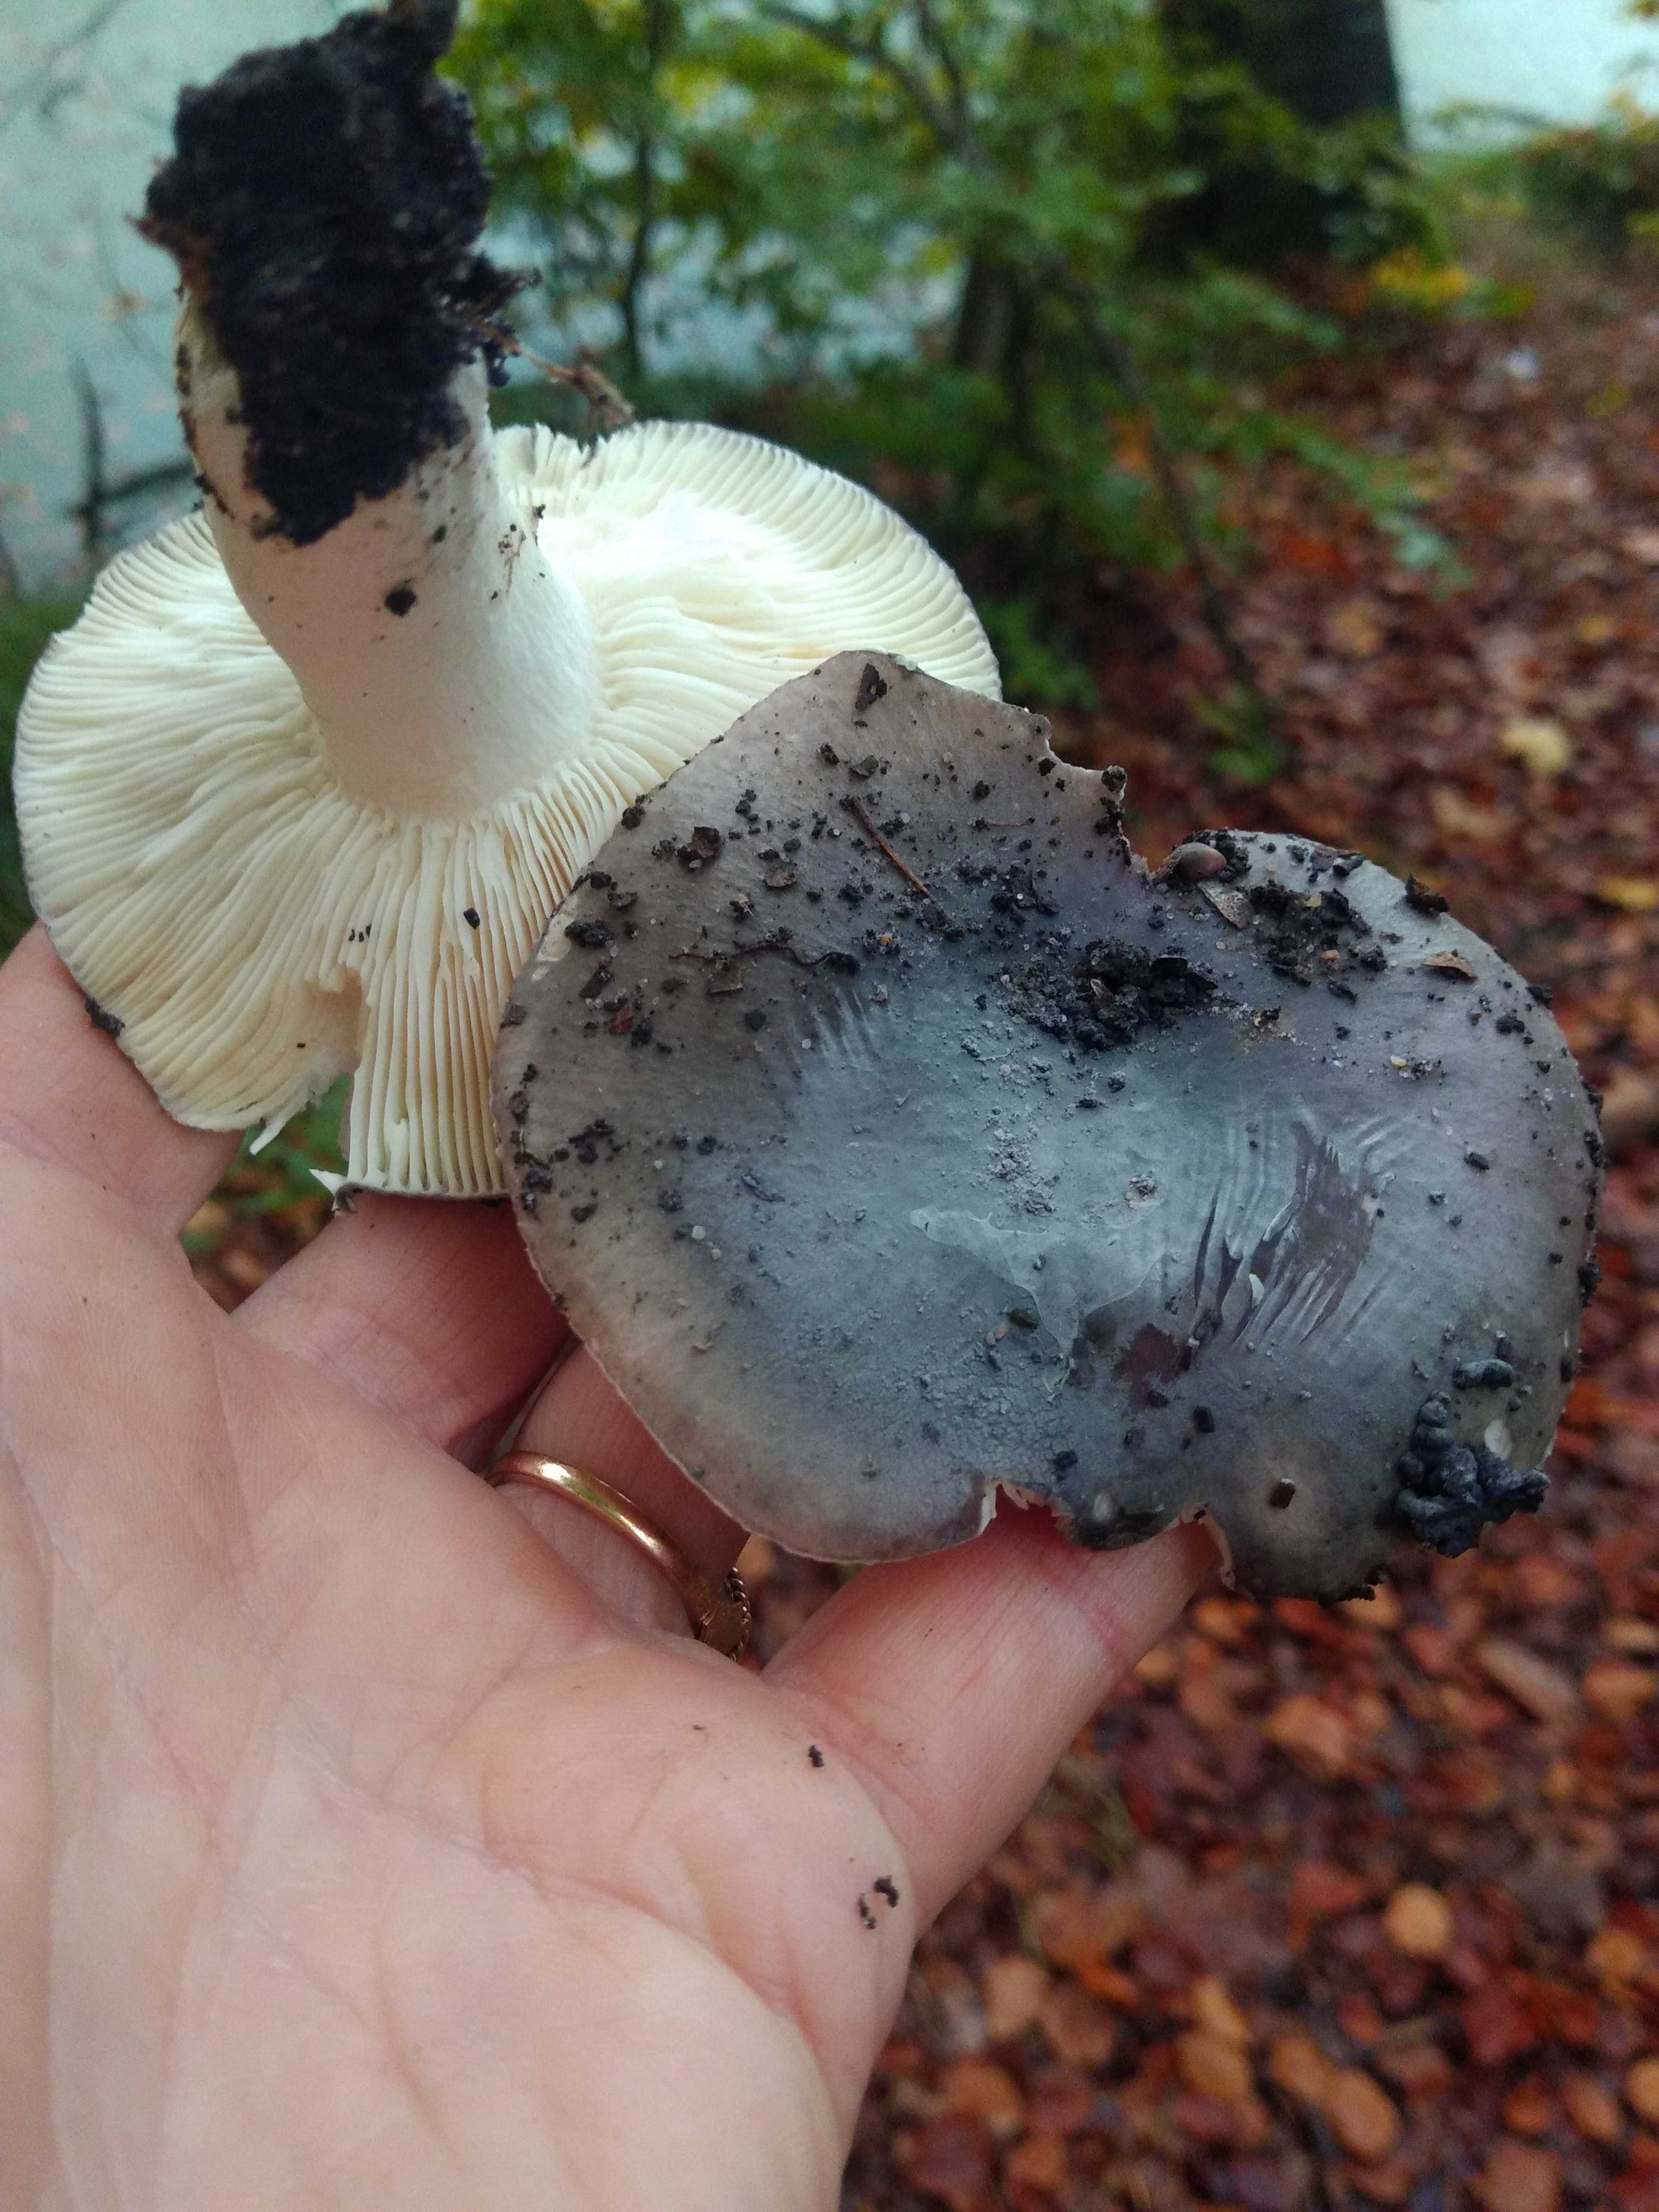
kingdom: Fungi
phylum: Basidiomycota
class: Agaricomycetes
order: Russulales
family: Russulaceae
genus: Russula
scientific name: Russula cyanoxantha
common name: broget skørhat
